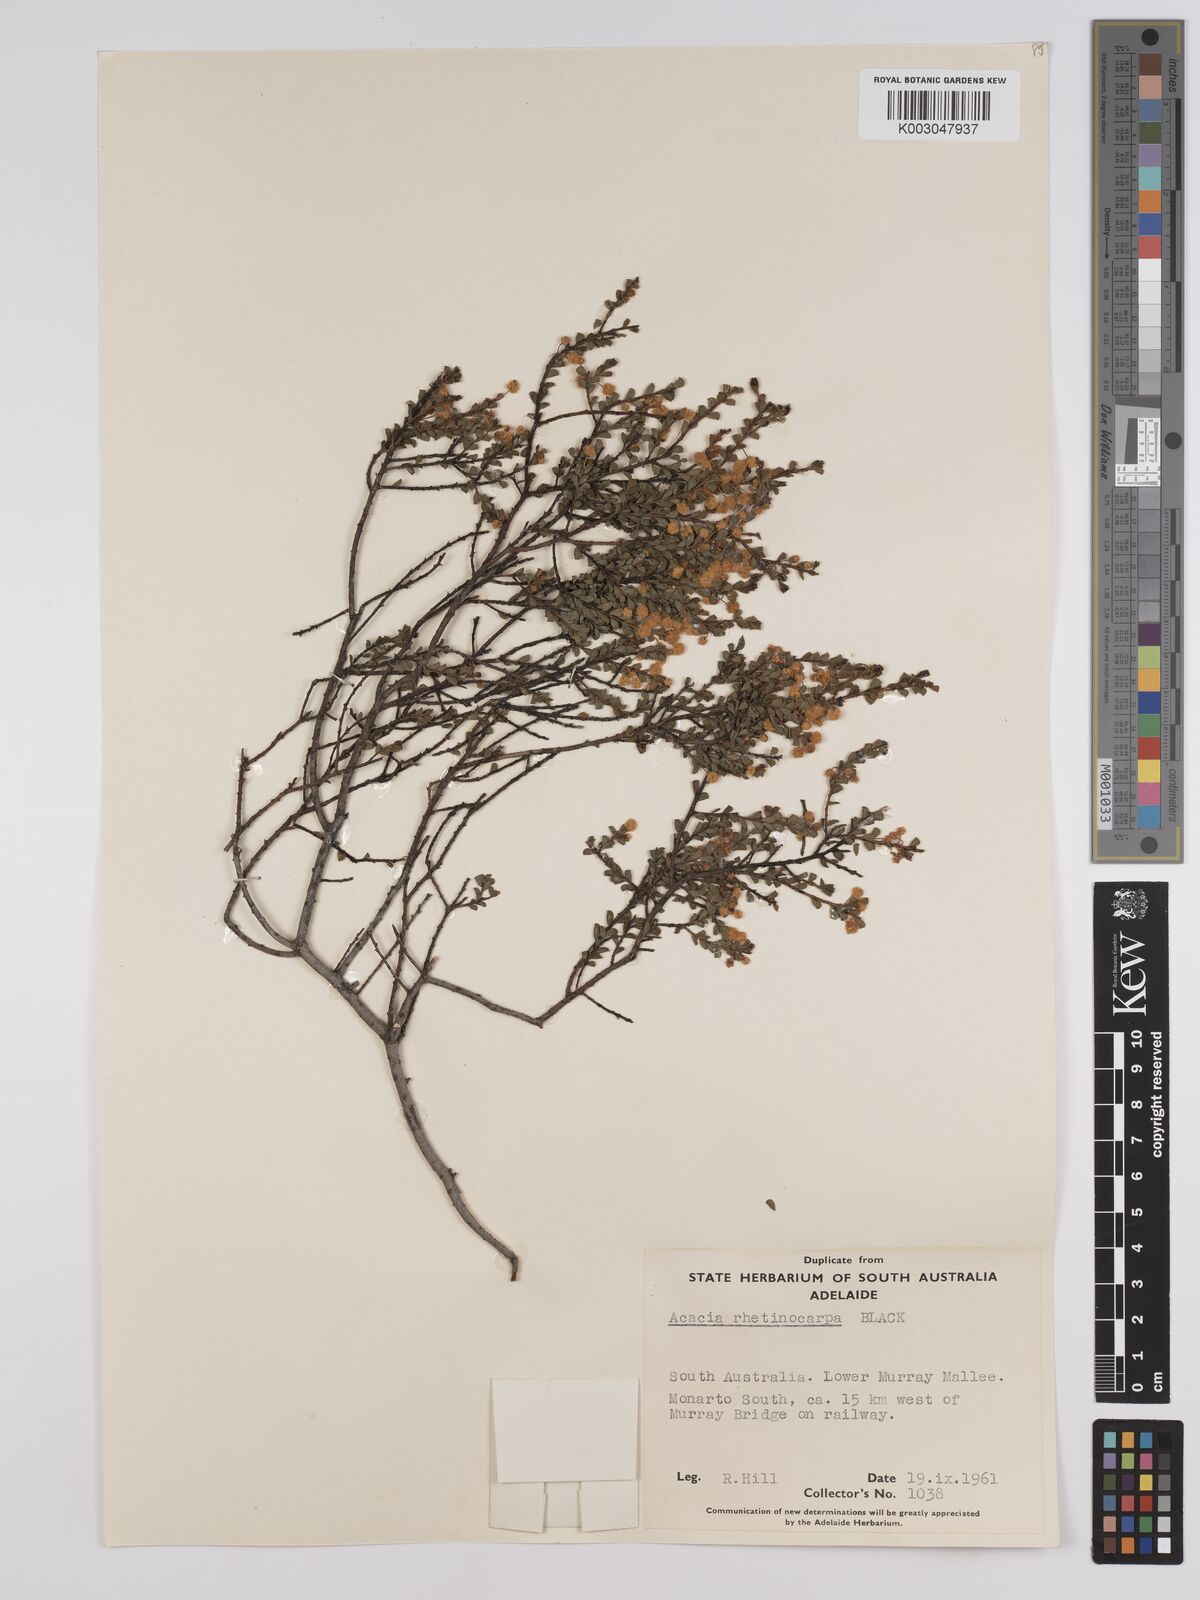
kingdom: Plantae
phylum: Tracheophyta
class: Magnoliopsida
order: Fabales
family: Fabaceae
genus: Acacia
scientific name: Acacia brachyclada
